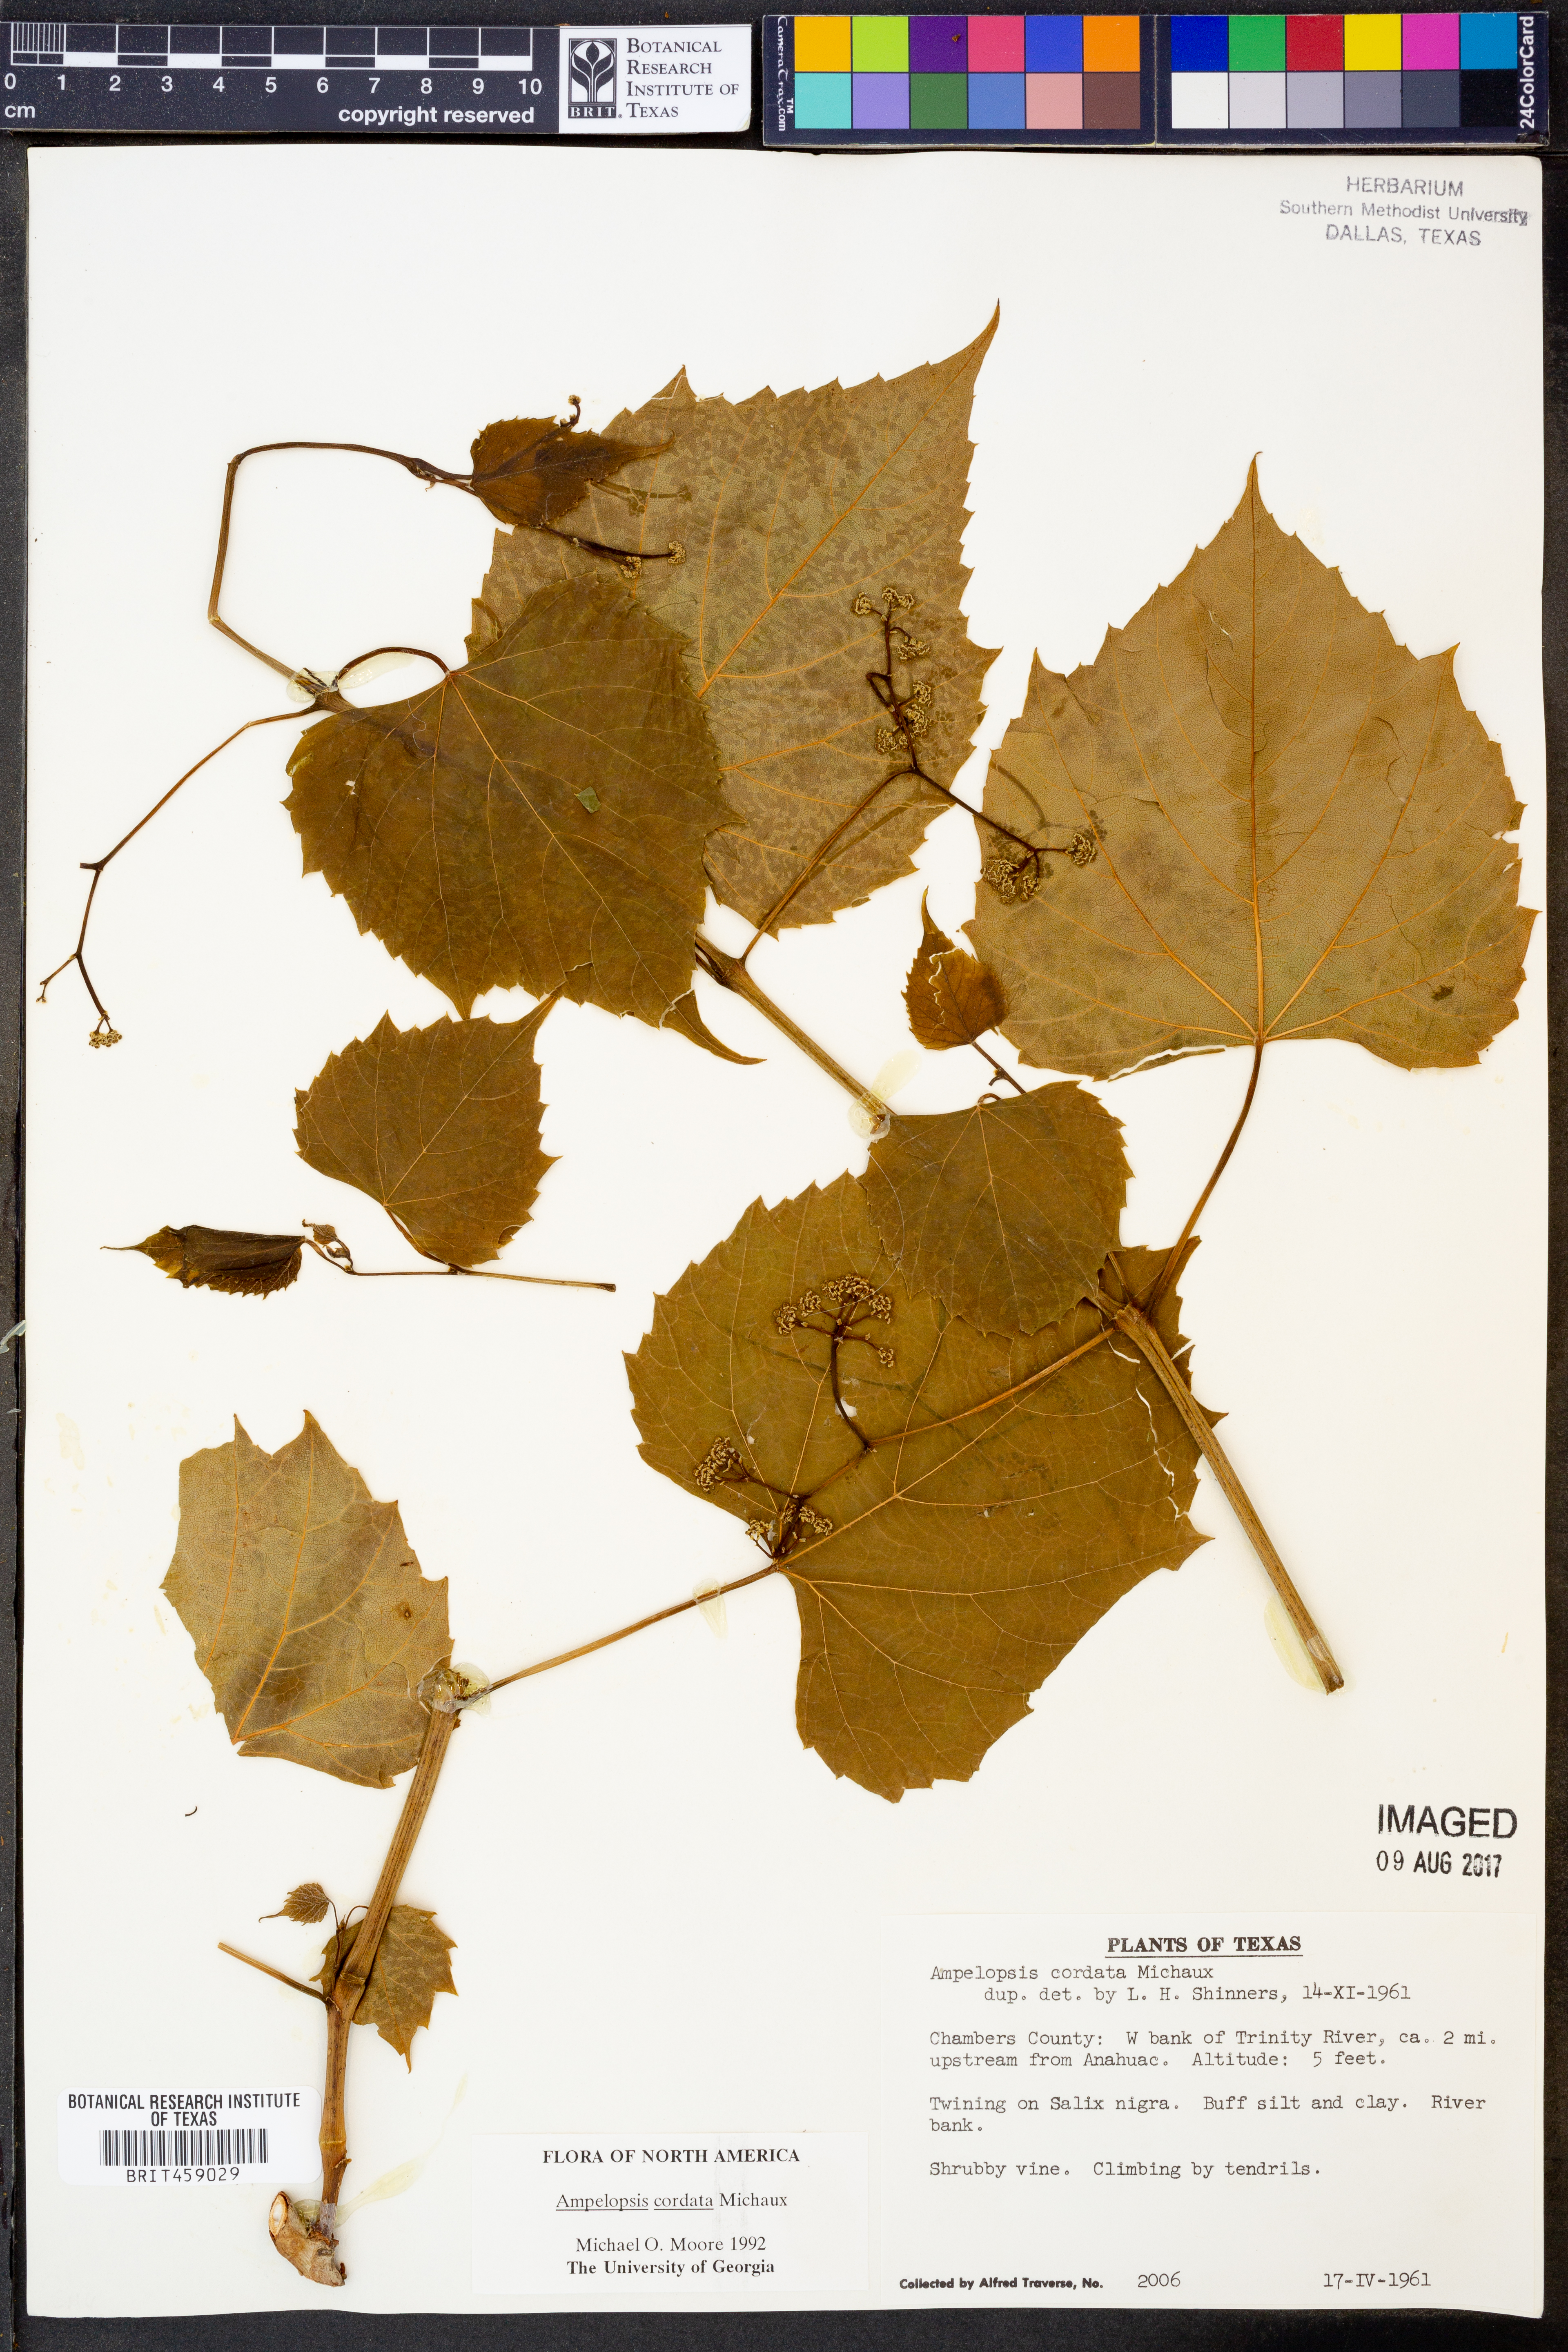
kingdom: Plantae
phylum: Tracheophyta
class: Magnoliopsida
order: Vitales
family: Vitaceae
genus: Ampelopsis
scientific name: Ampelopsis cordata
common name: Heart-leaf ampelopsis
